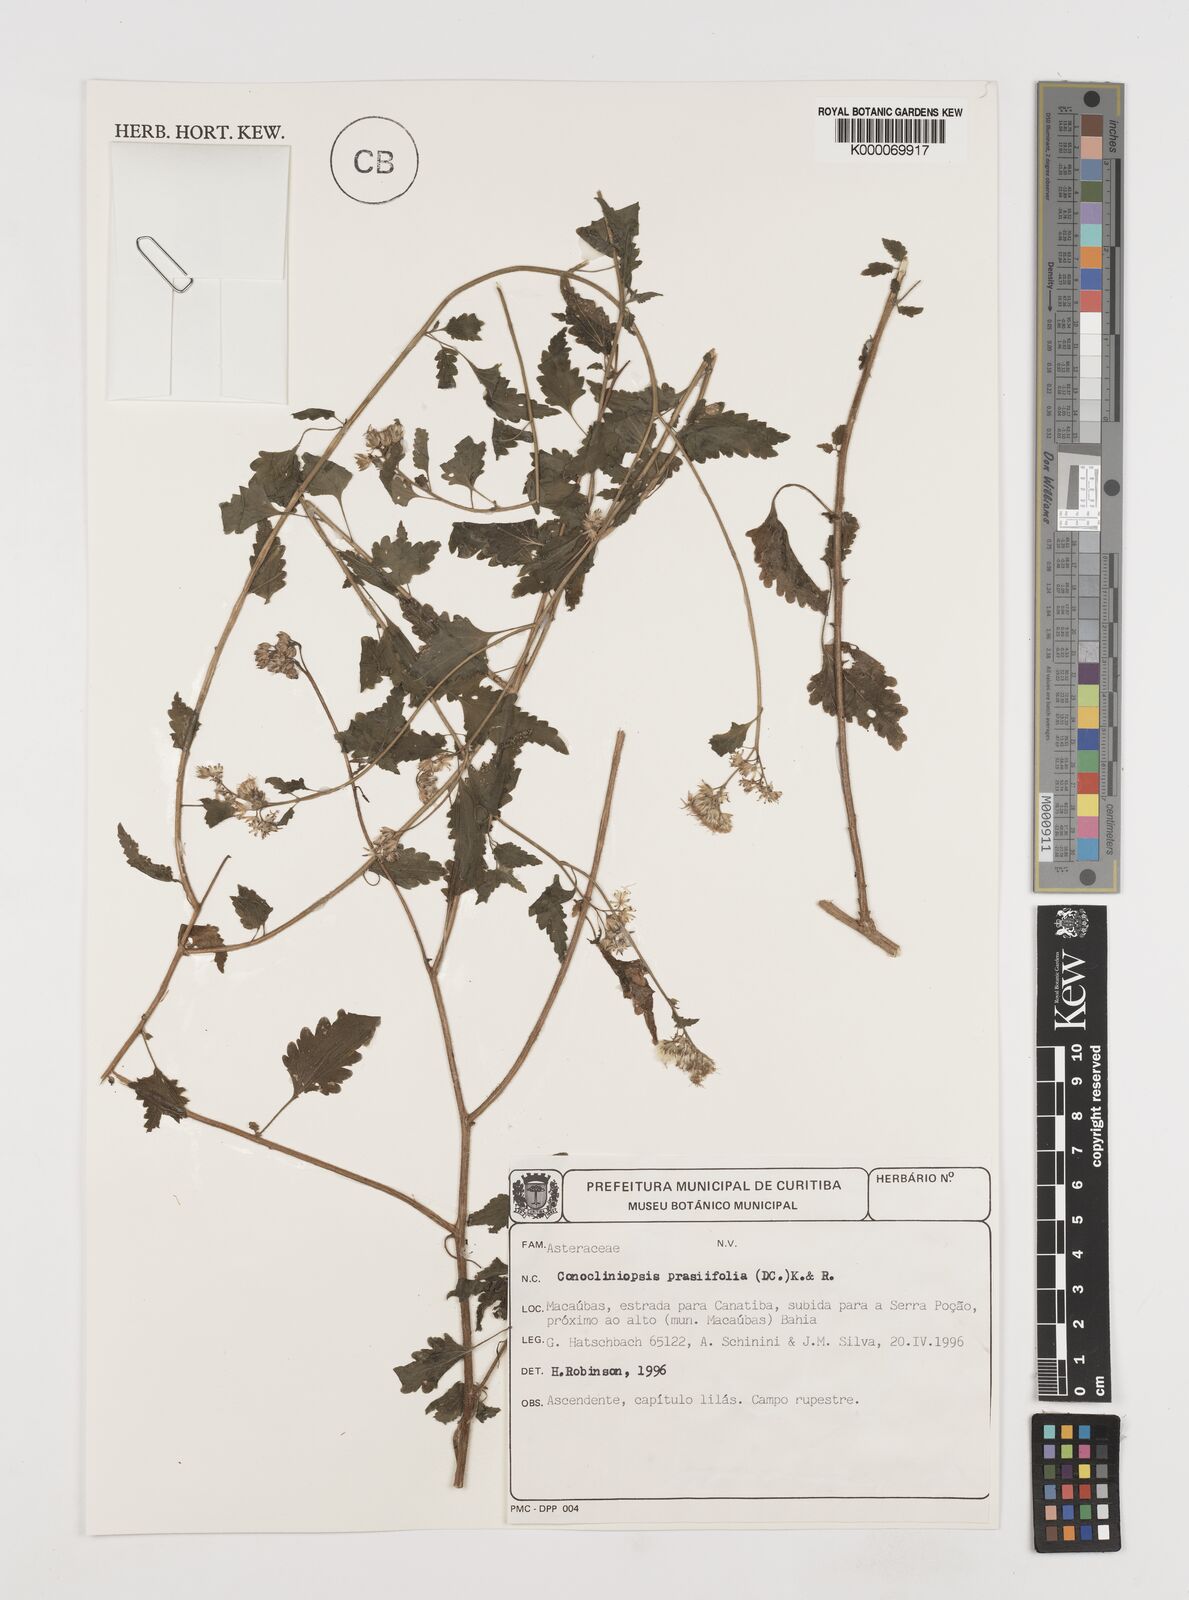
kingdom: Plantae
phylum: Tracheophyta
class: Magnoliopsida
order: Asterales
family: Asteraceae
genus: Conocliniopsis
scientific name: Conocliniopsis grossedentata
